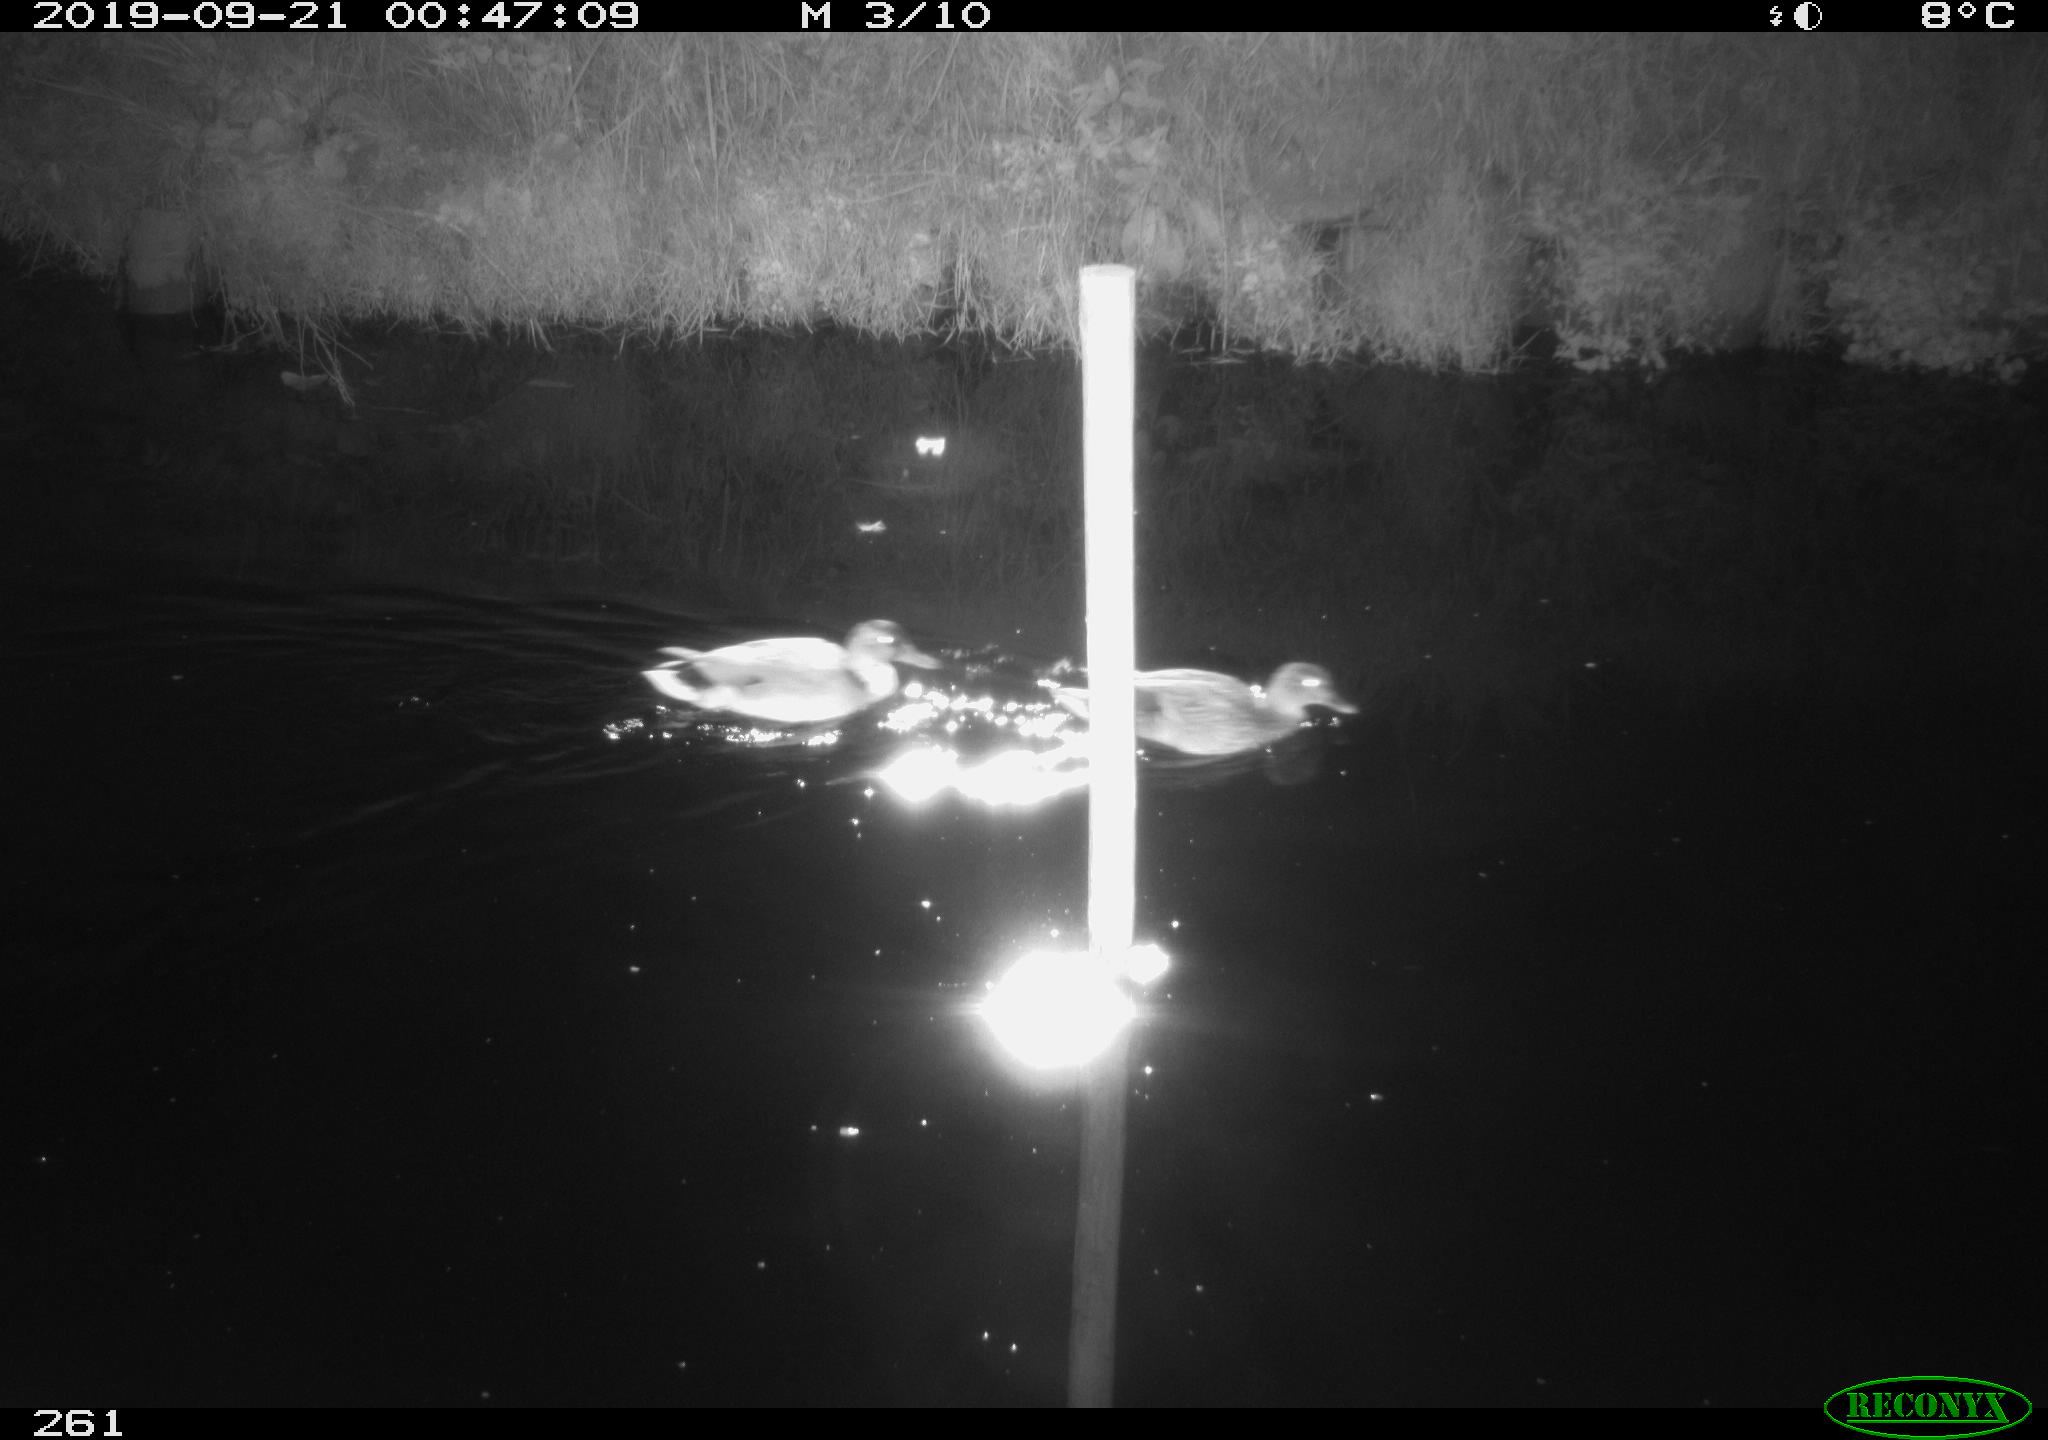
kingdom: Animalia
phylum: Chordata
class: Aves
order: Anseriformes
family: Anatidae
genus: Anas
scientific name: Anas platyrhynchos
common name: Mallard
